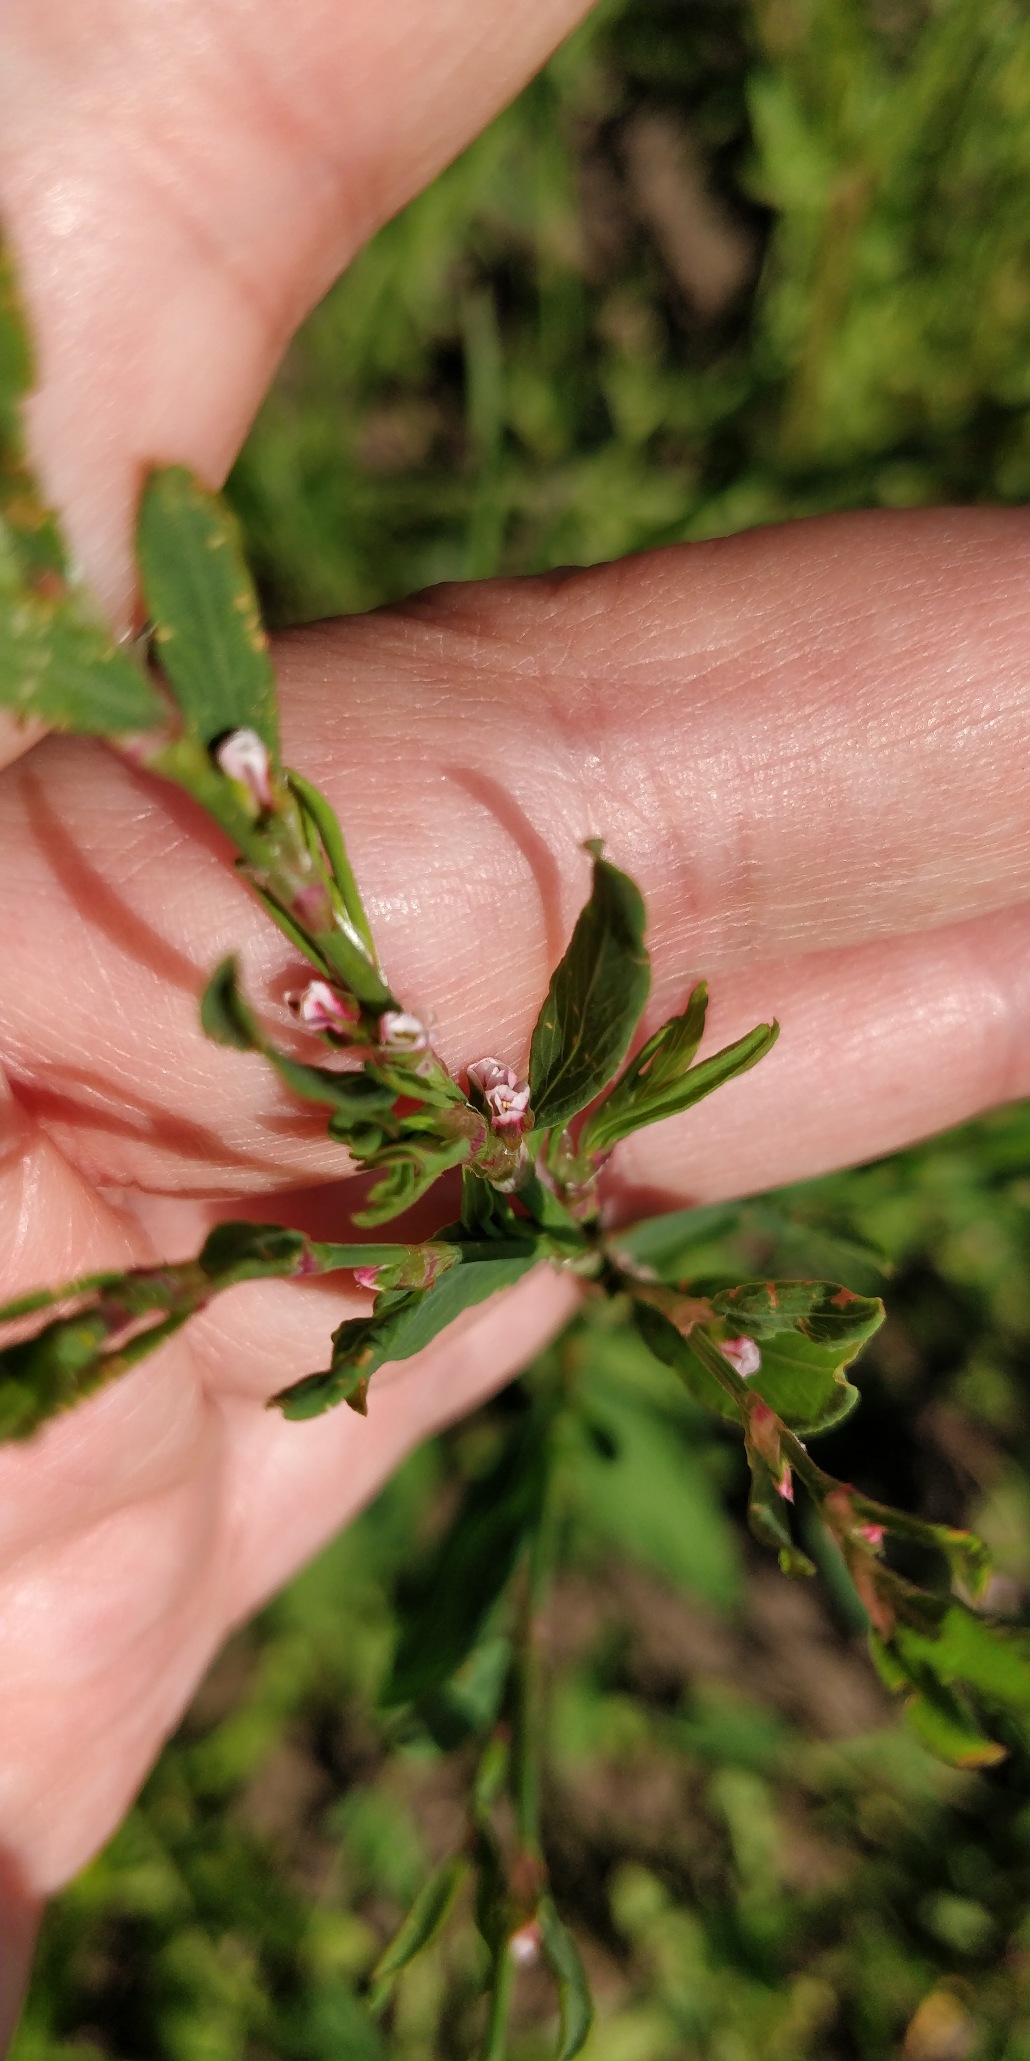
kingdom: Plantae
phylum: Tracheophyta
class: Magnoliopsida
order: Caryophyllales
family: Polygonaceae
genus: Polygonum
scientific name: Polygonum aviculare
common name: Vej-pileurt (underart)
